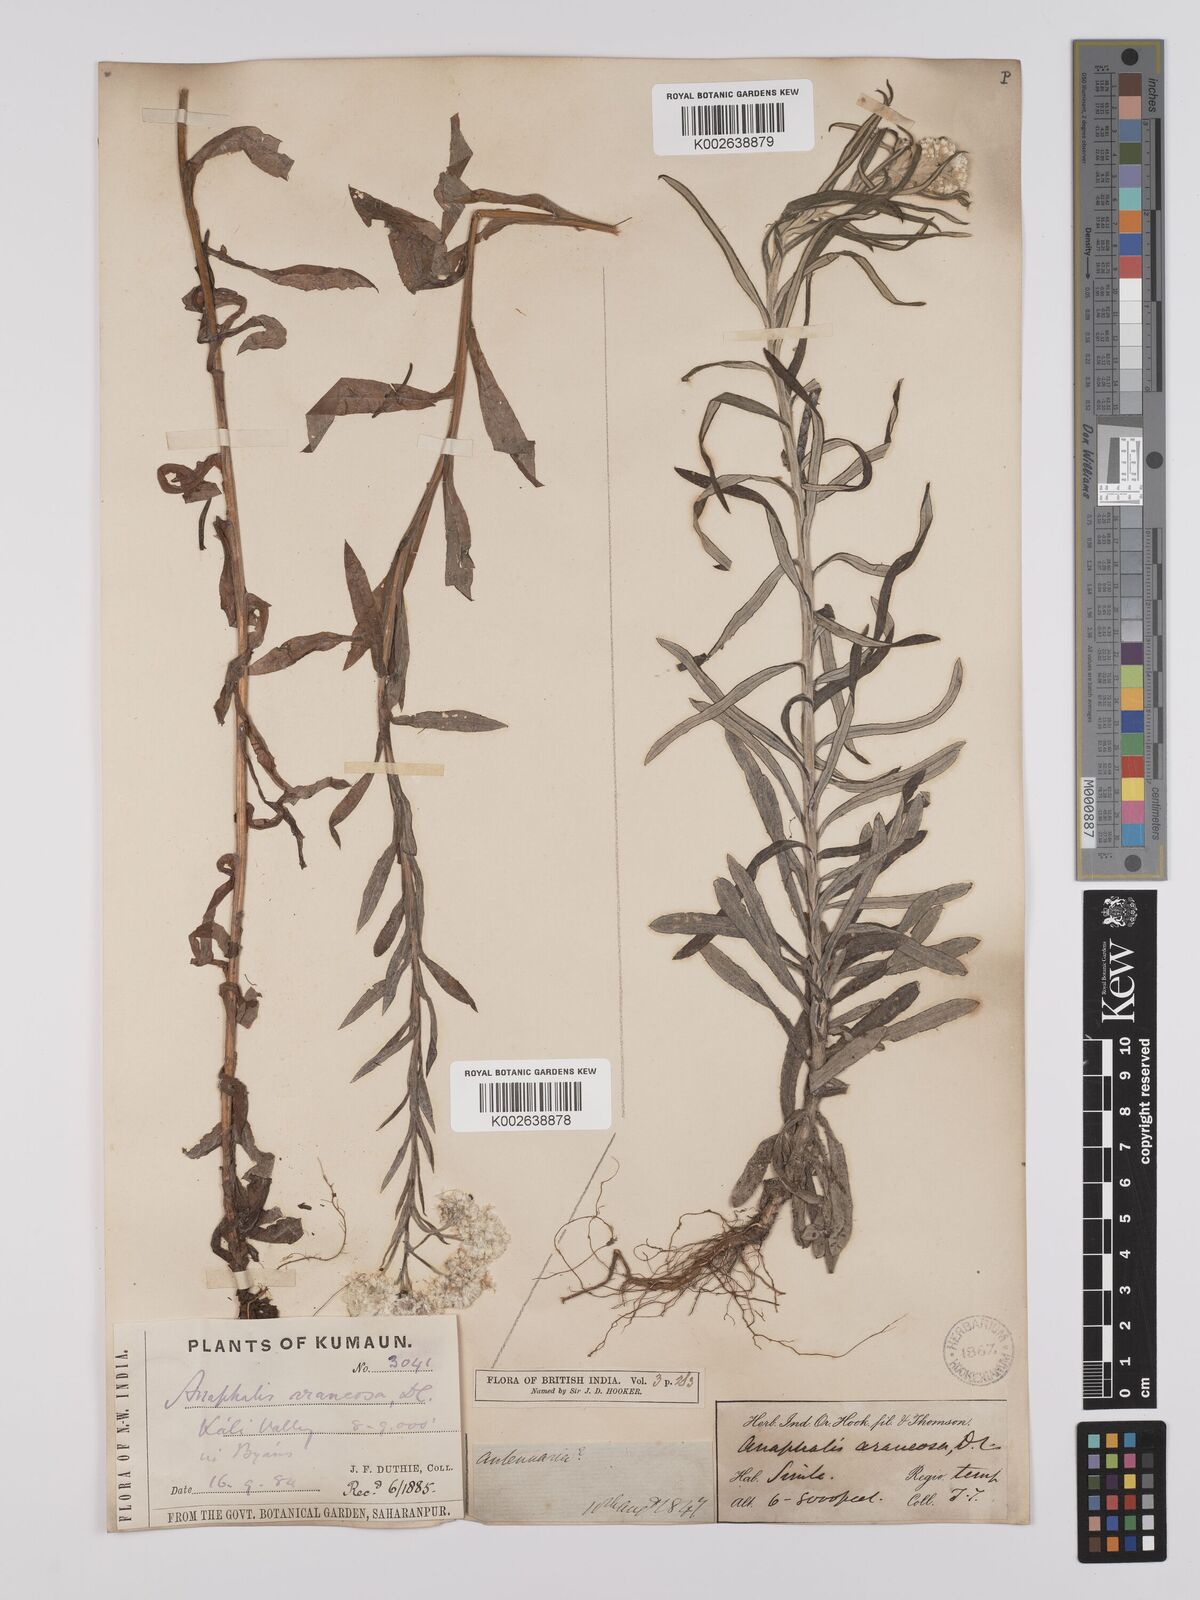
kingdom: Plantae
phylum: Tracheophyta
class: Magnoliopsida
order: Asterales
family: Asteraceae
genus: Anaphalis
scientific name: Anaphalis busua
